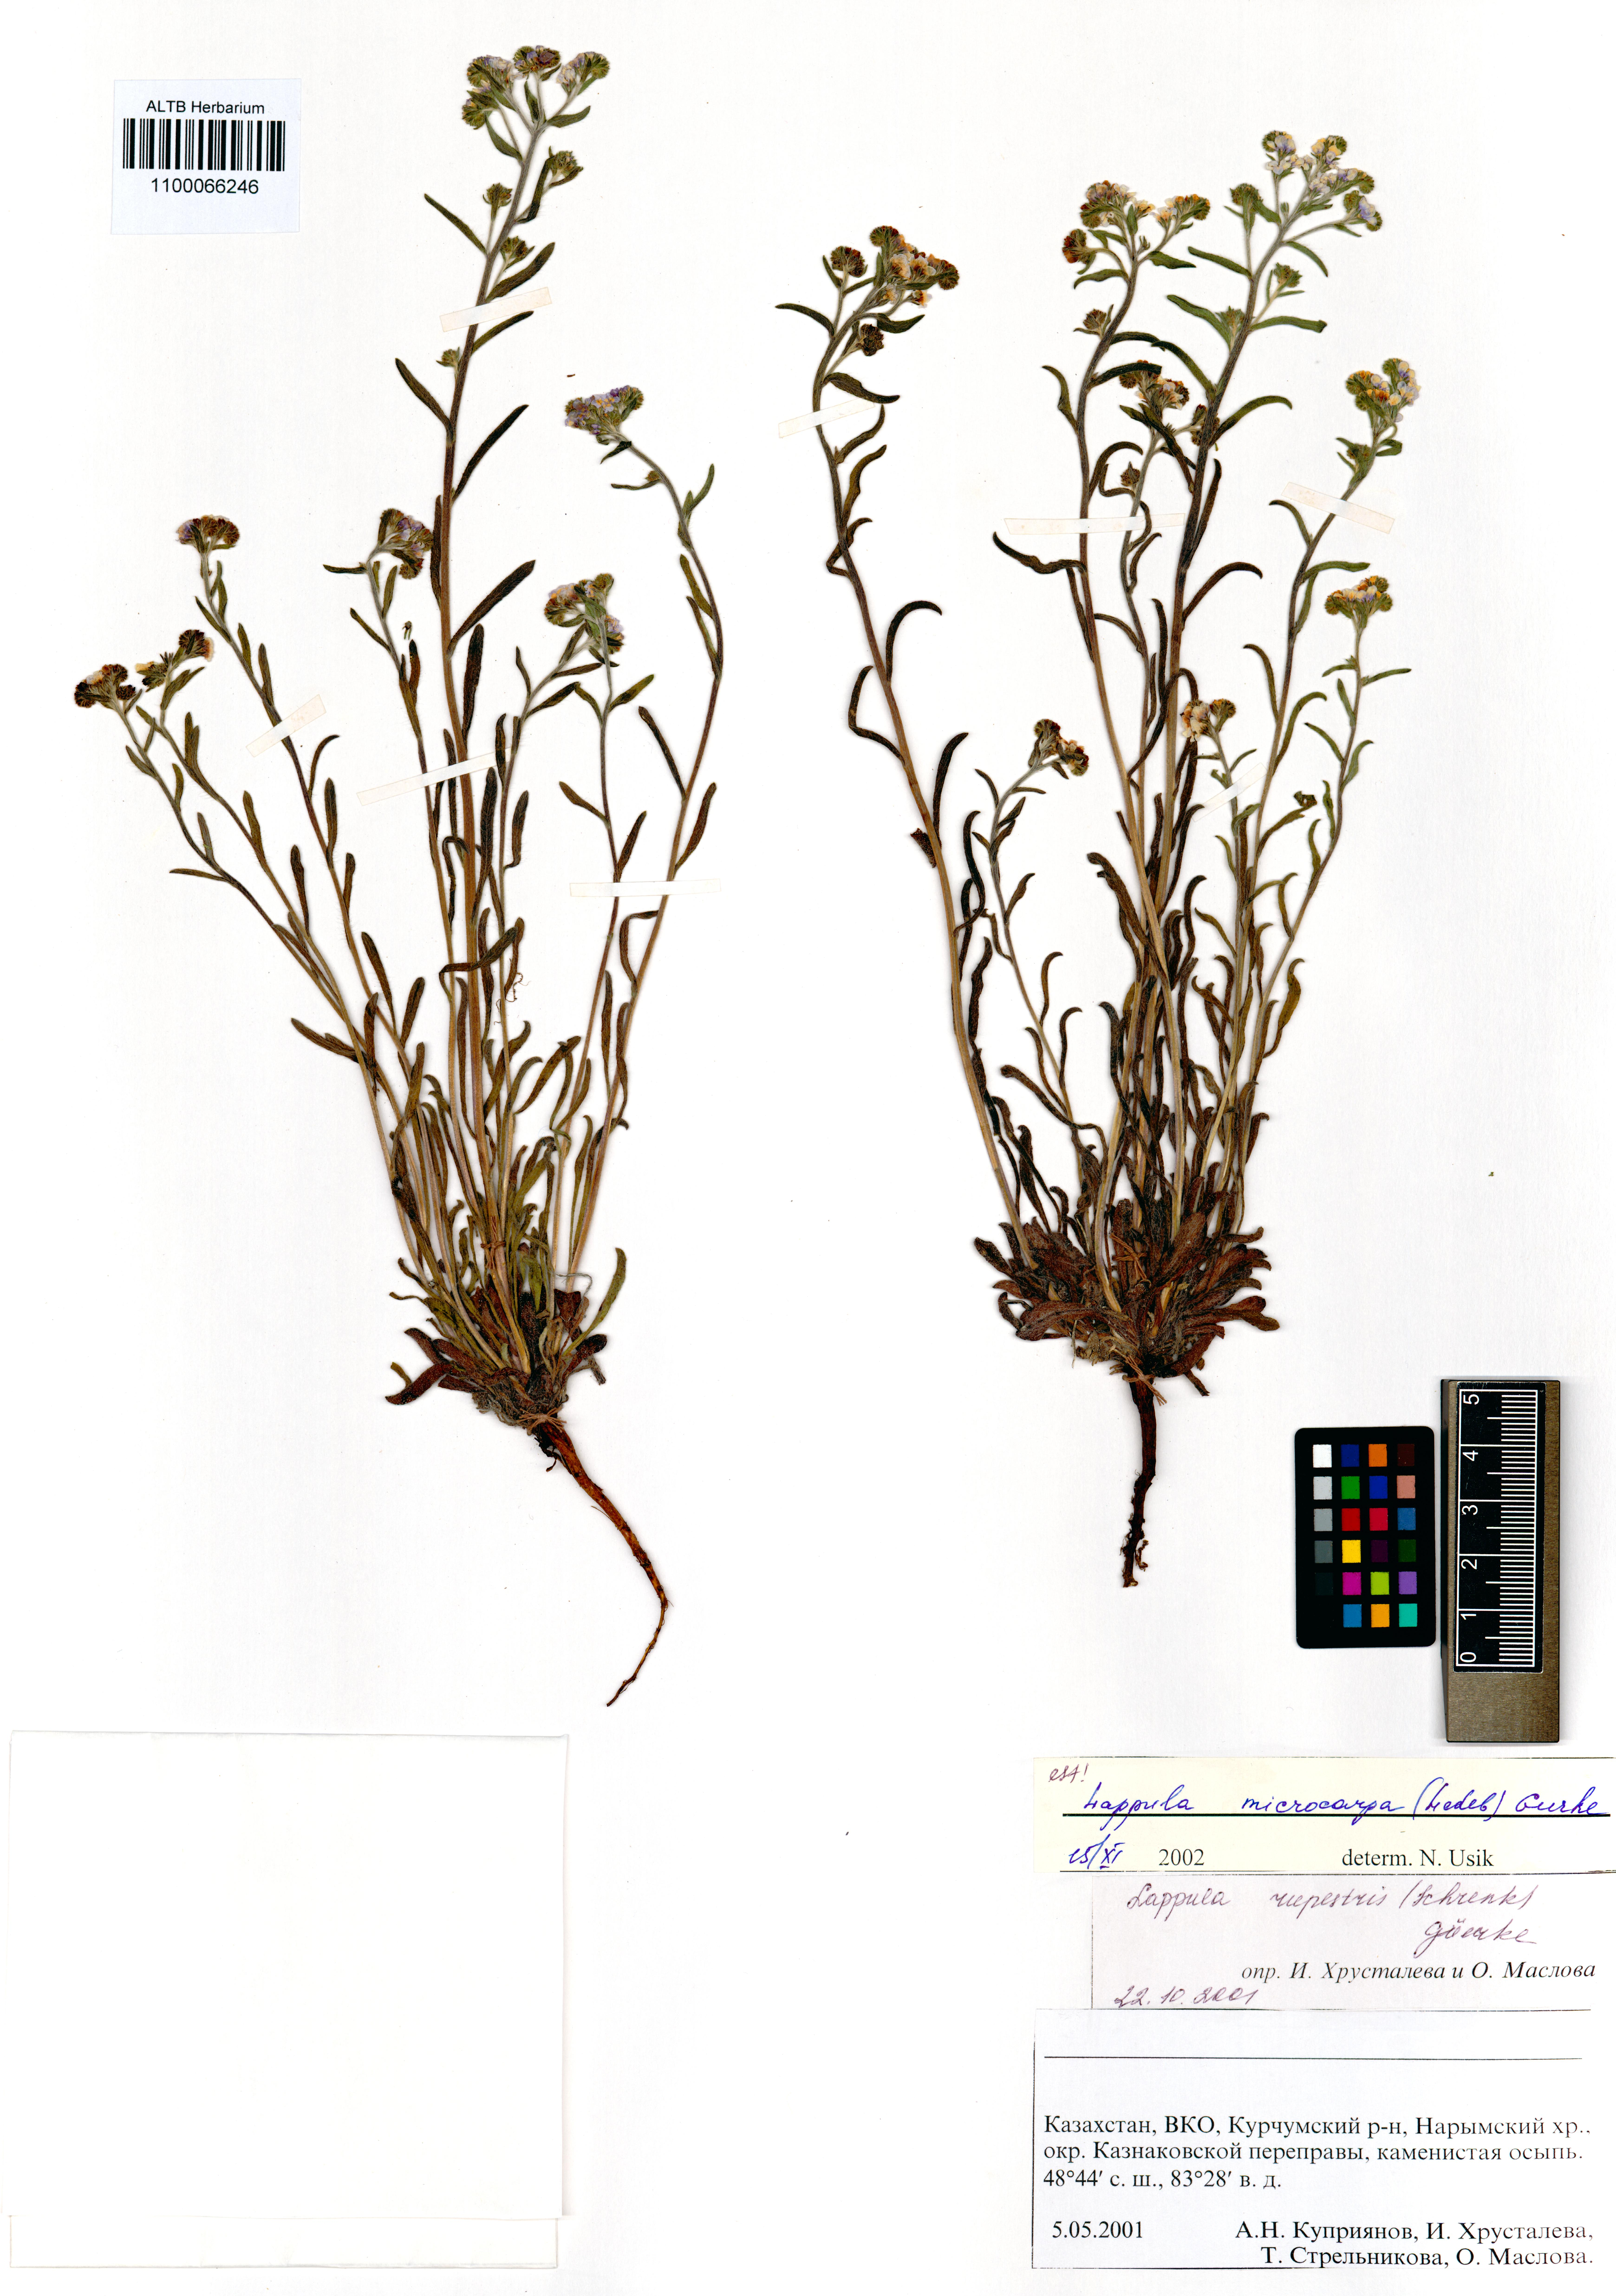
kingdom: Plantae
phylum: Tracheophyta
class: Magnoliopsida
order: Boraginales
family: Boraginaceae
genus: Lappula
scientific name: Lappula microcarpa
